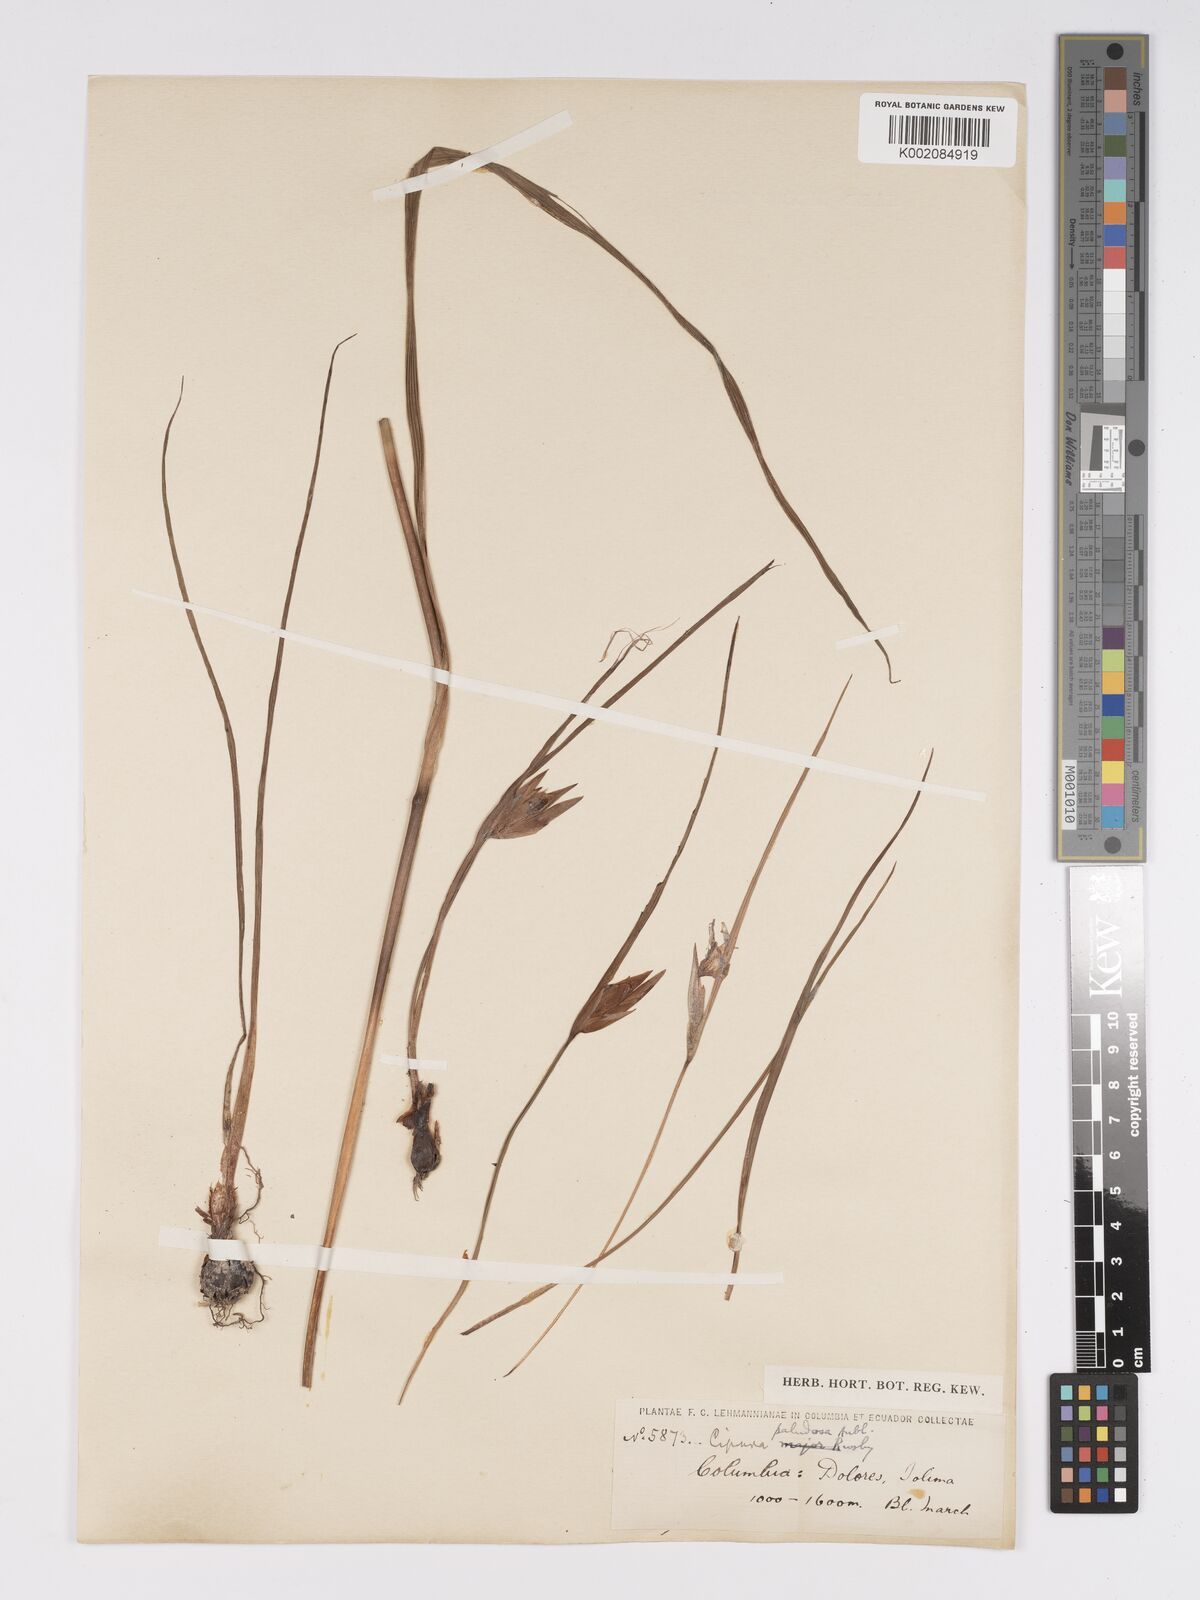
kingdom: Plantae
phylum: Tracheophyta
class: Liliopsida
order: Asparagales
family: Iridaceae
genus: Cipura
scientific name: Cipura paludosa
